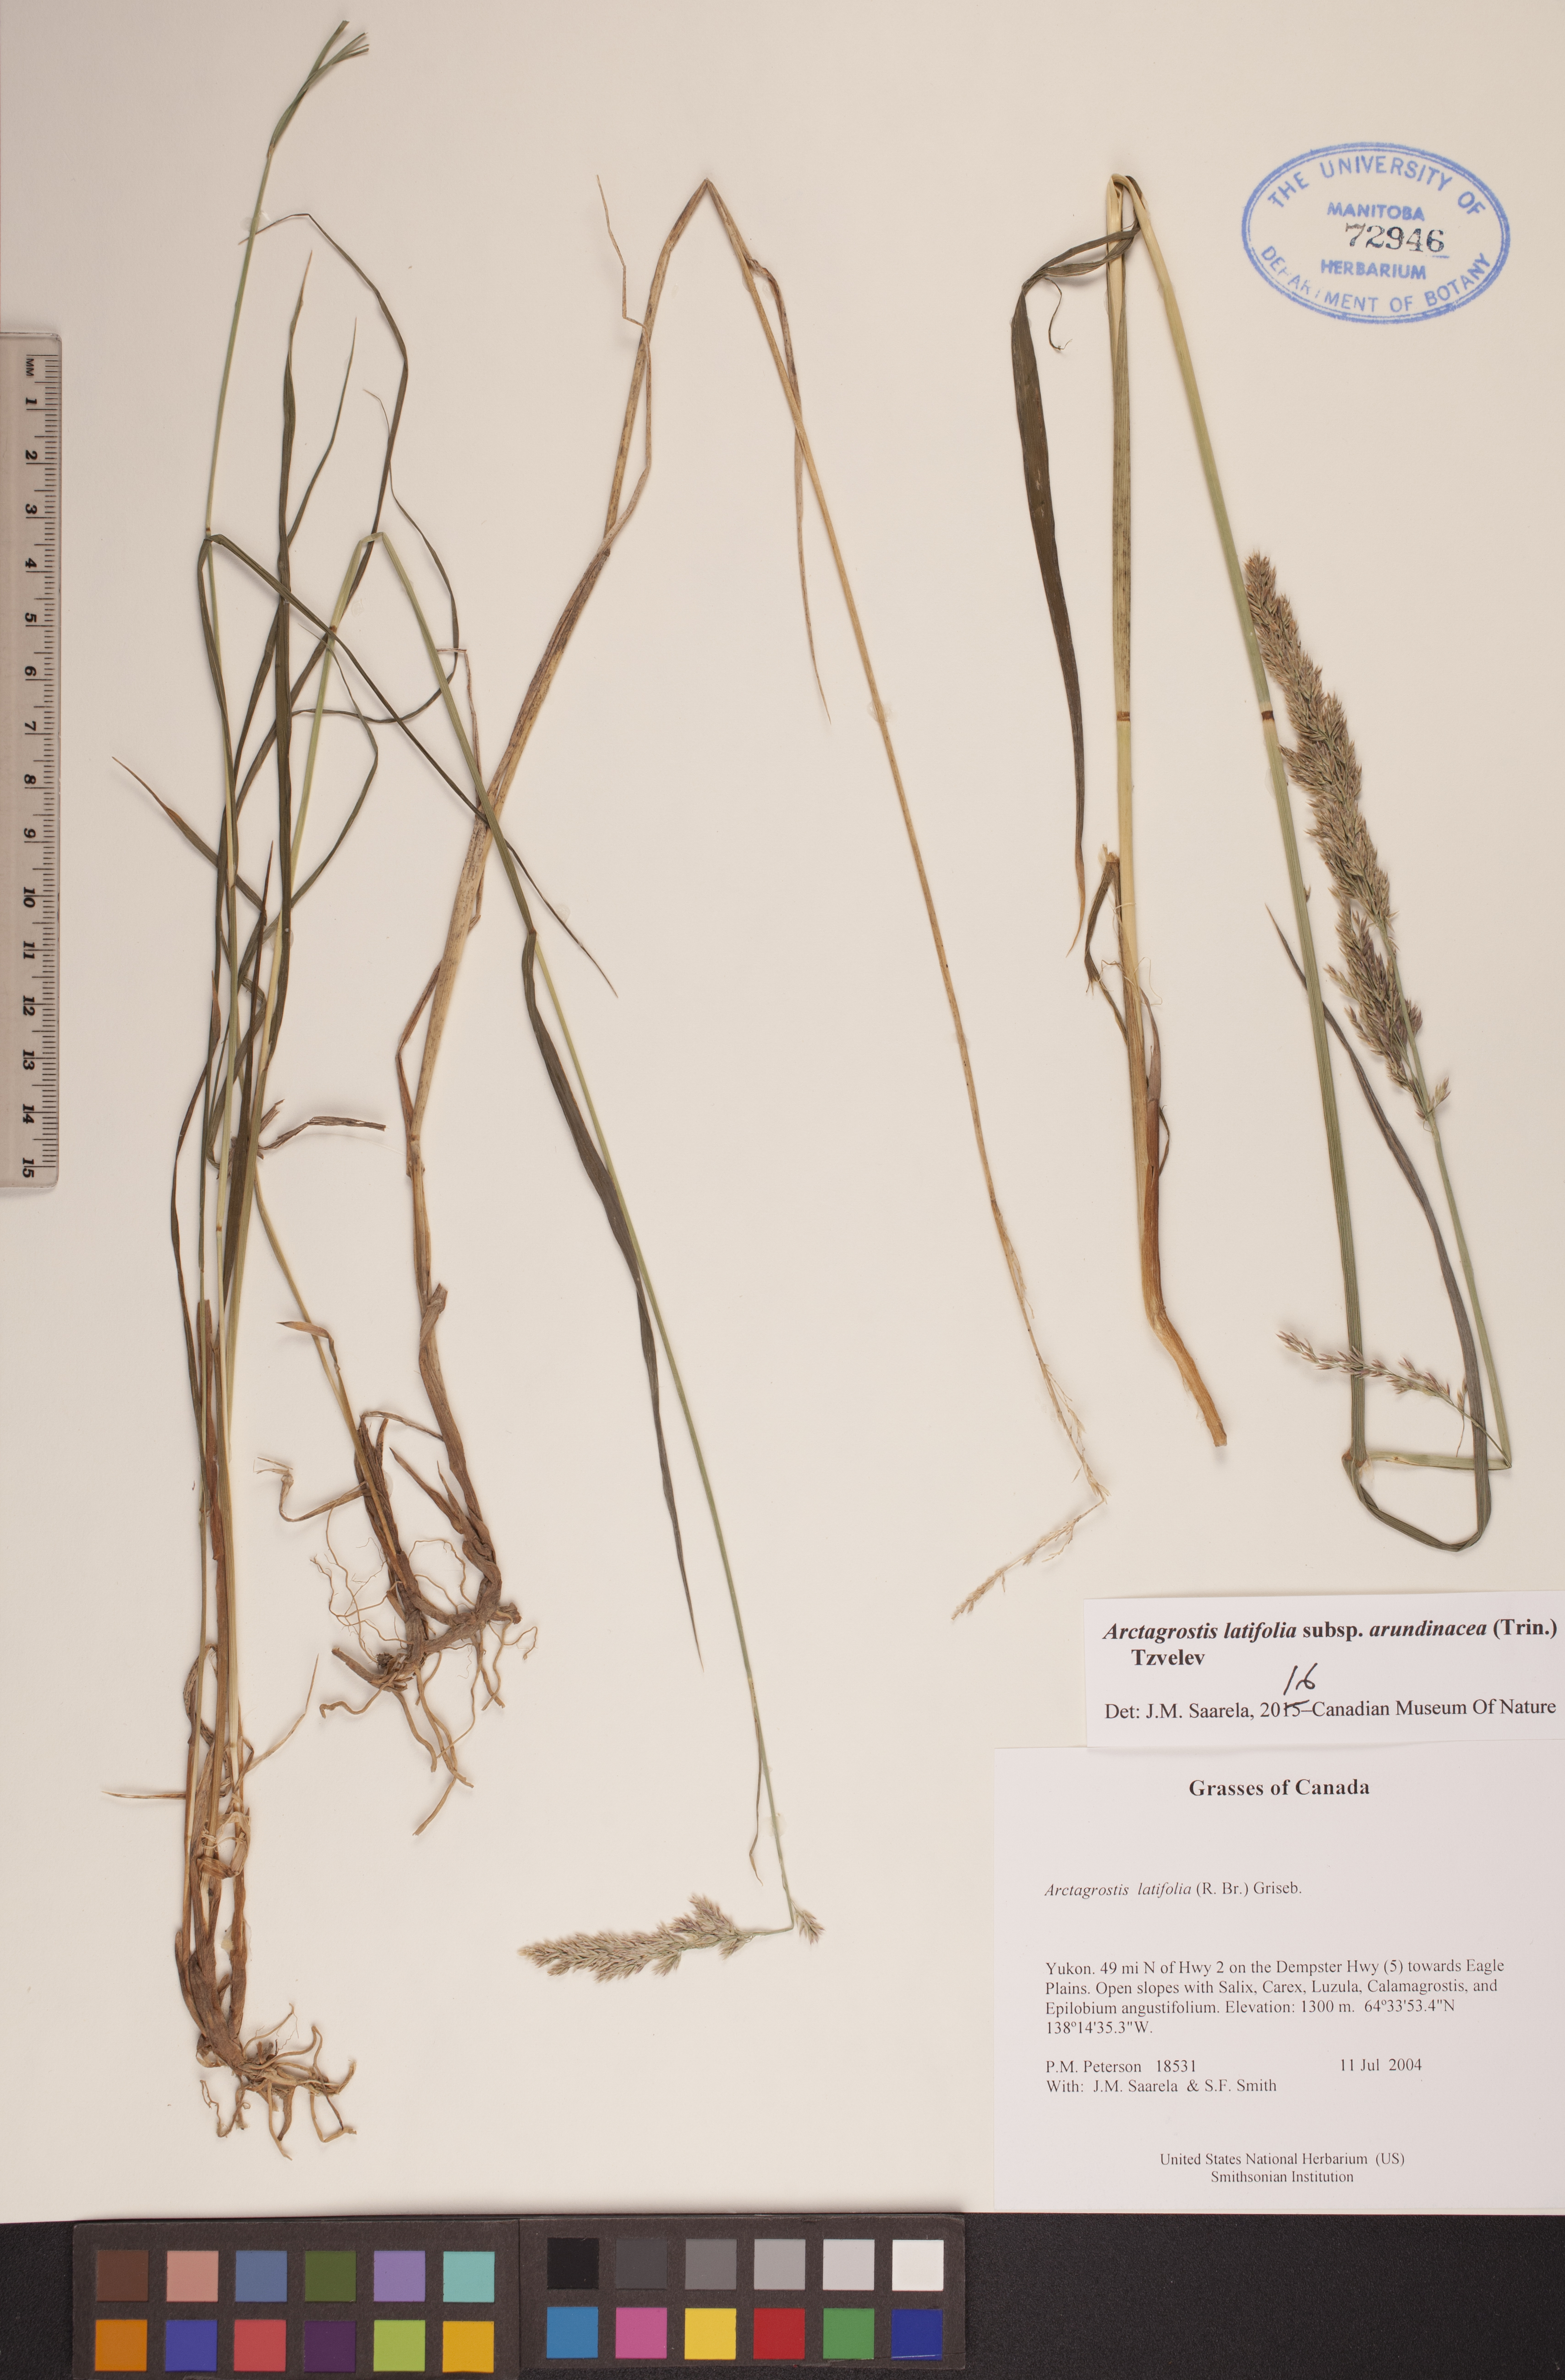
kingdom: Plantae
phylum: Tracheophyta
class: Liliopsida
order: Poales
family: Poaceae
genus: Arctagrostis
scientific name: Arctagrostis arundinacea
